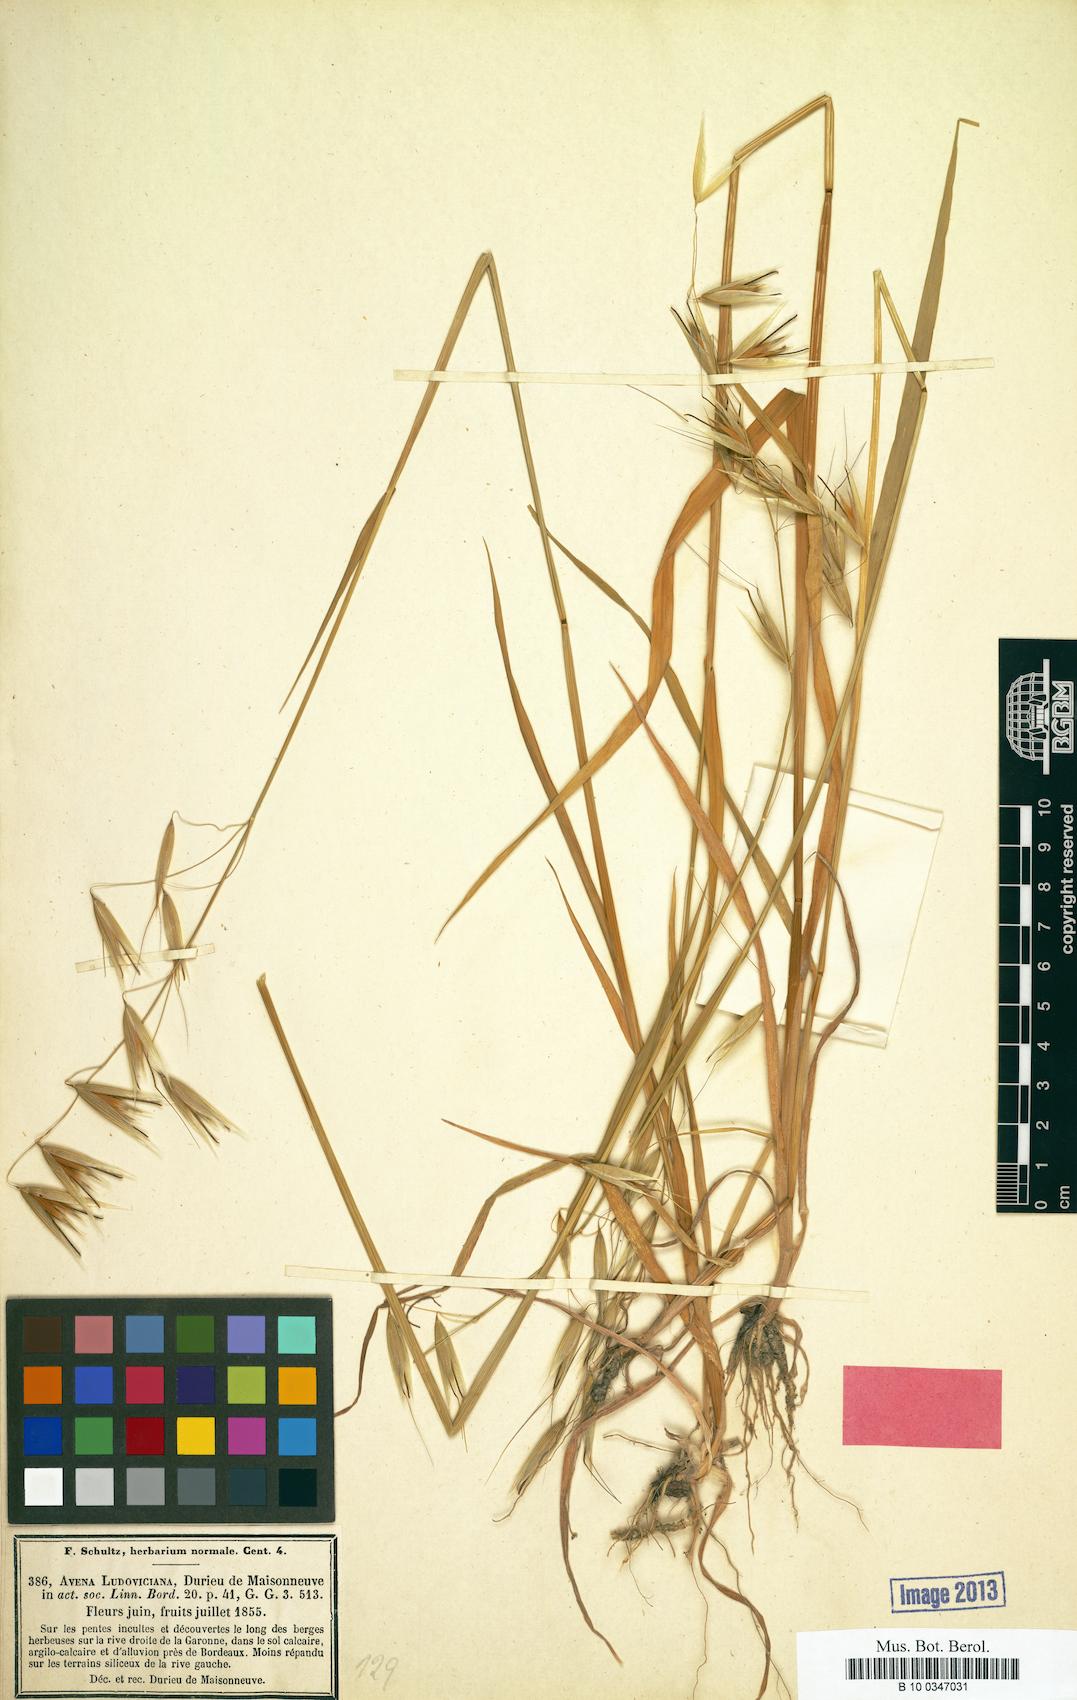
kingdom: Plantae
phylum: Tracheophyta
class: Liliopsida
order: Poales
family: Poaceae
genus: Avena
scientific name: Avena sterilis
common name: Animated oat
